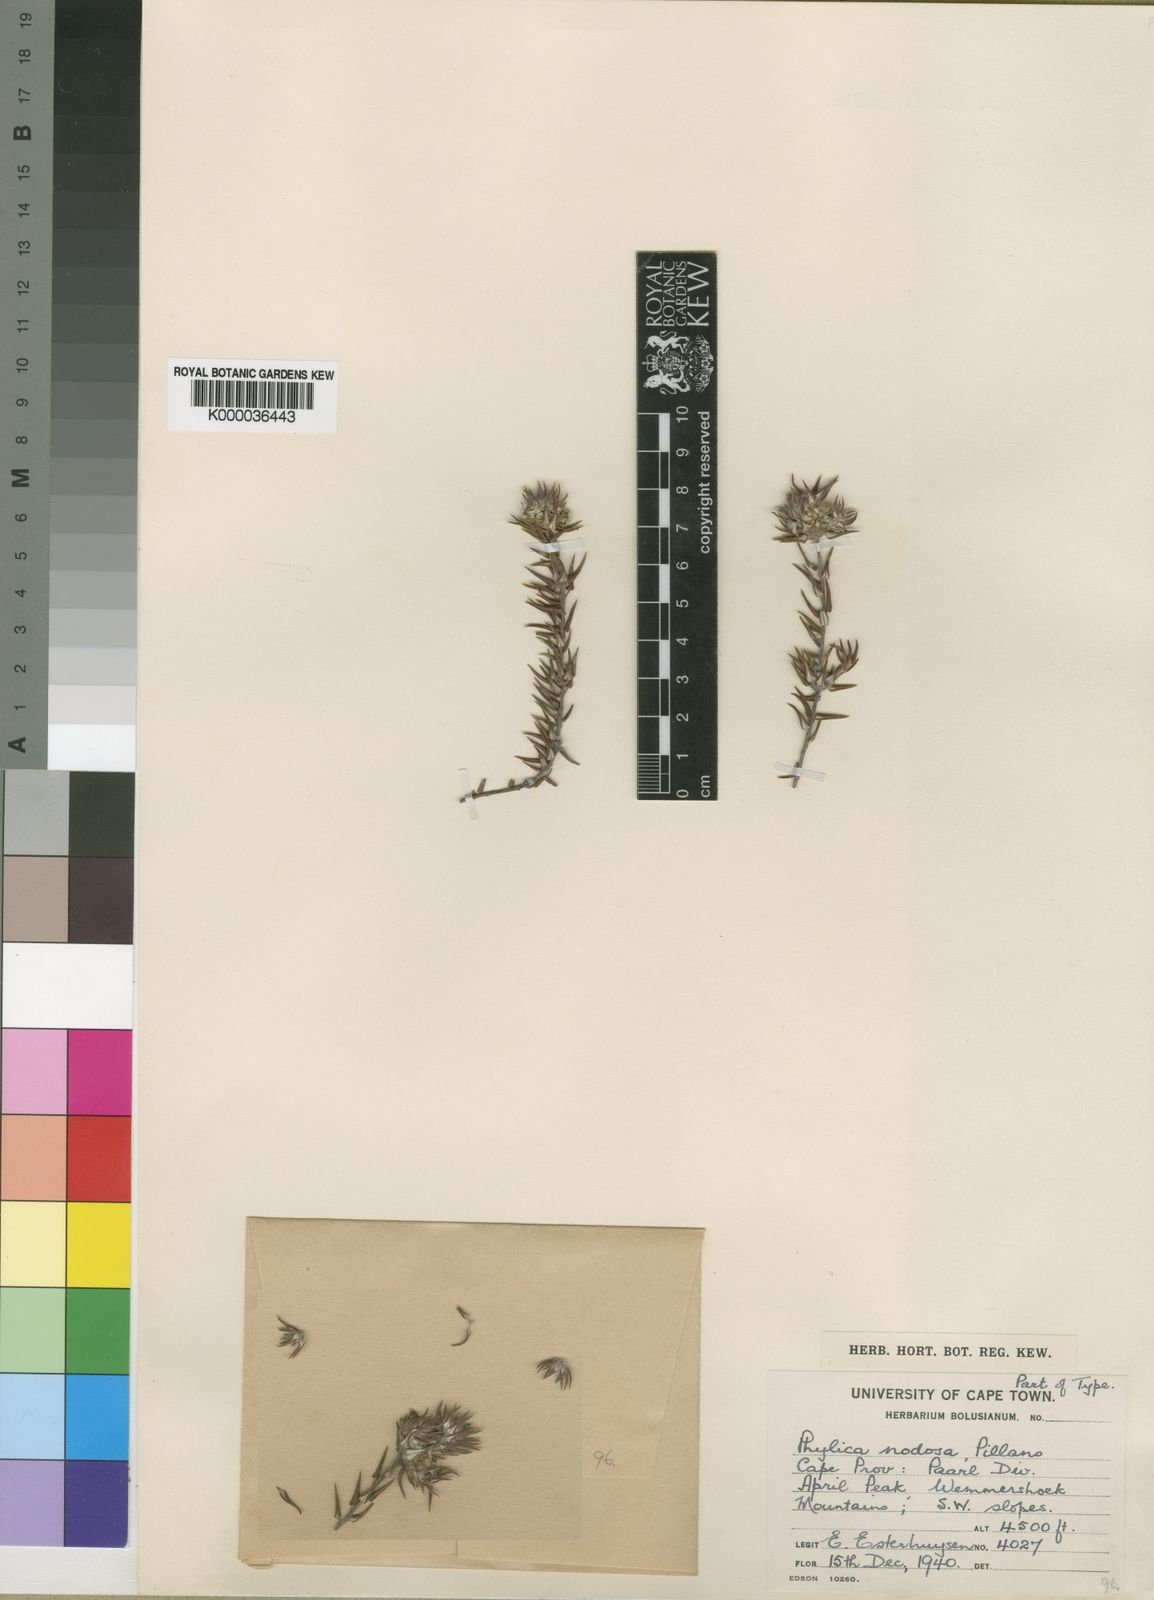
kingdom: Plantae
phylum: Tracheophyta
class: Magnoliopsida
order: Rosales
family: Rhamnaceae
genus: Phylica
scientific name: Phylica nodosa
